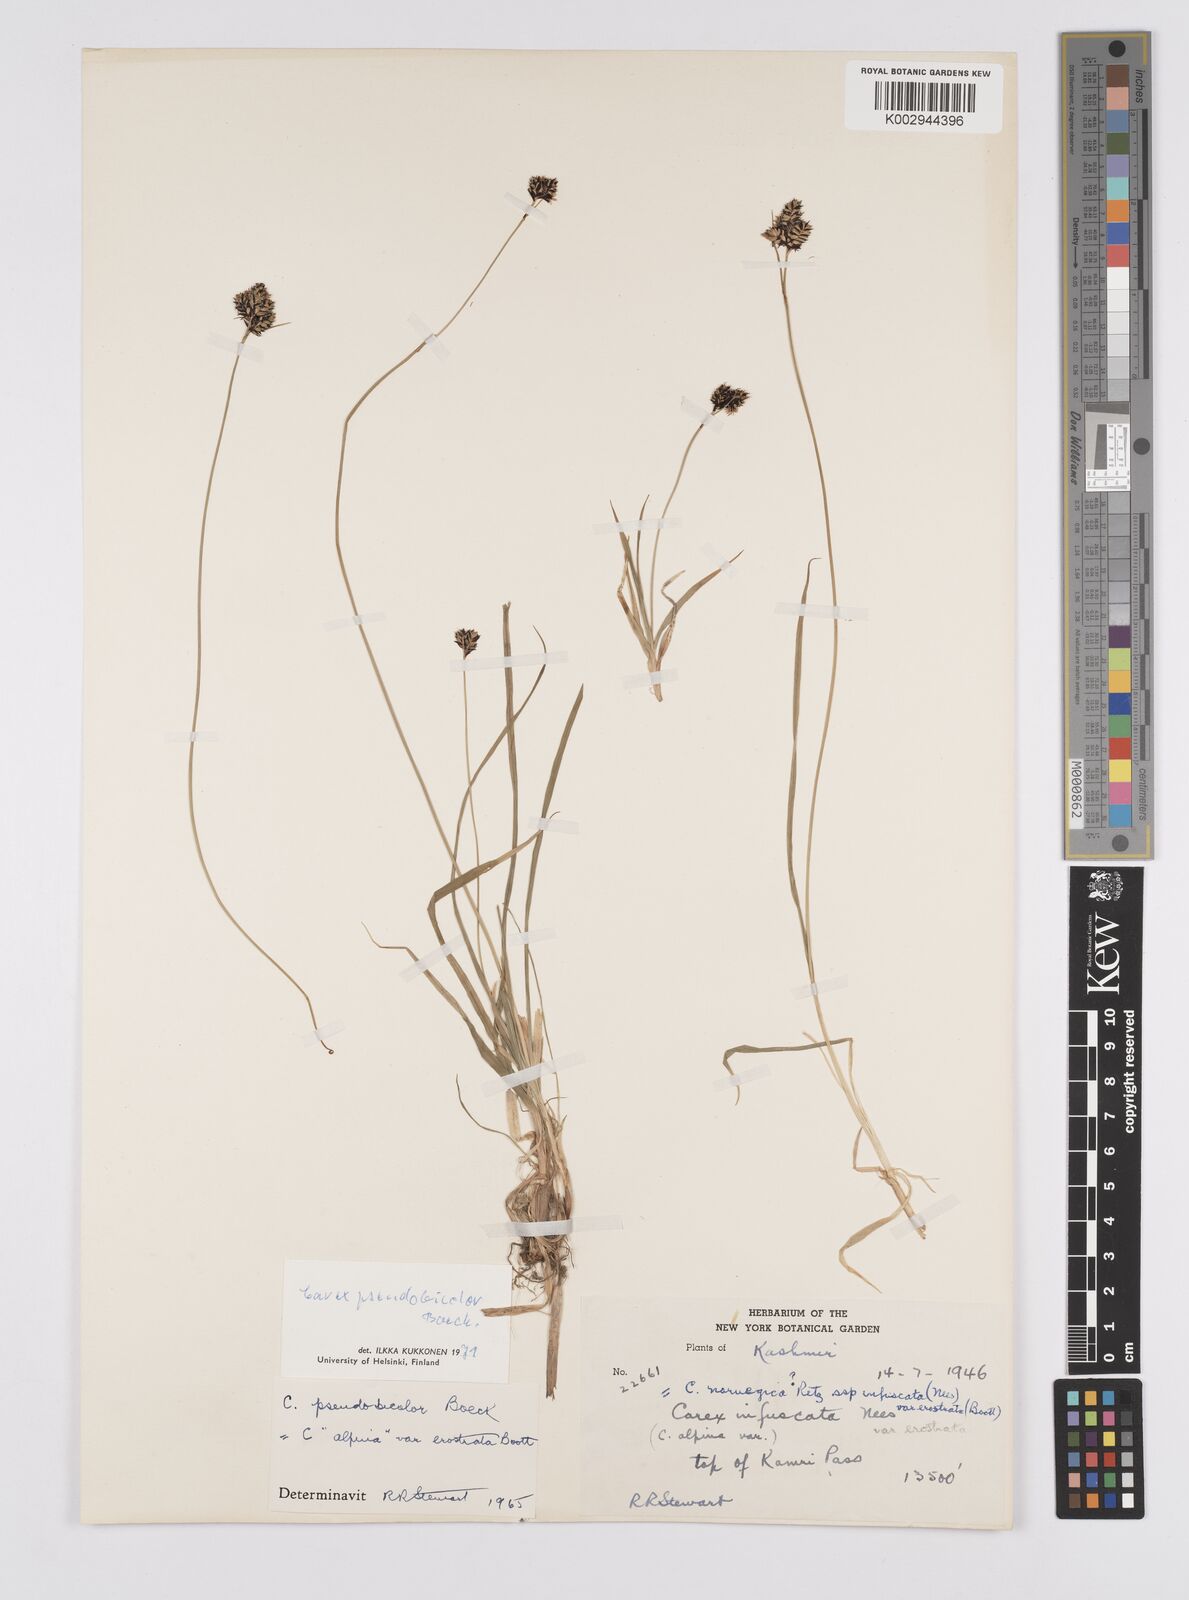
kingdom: Plantae
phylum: Tracheophyta
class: Liliopsida
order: Poales
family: Cyperaceae
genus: Carex
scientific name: Carex norvegica
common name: Close-headed alpine-sedge
